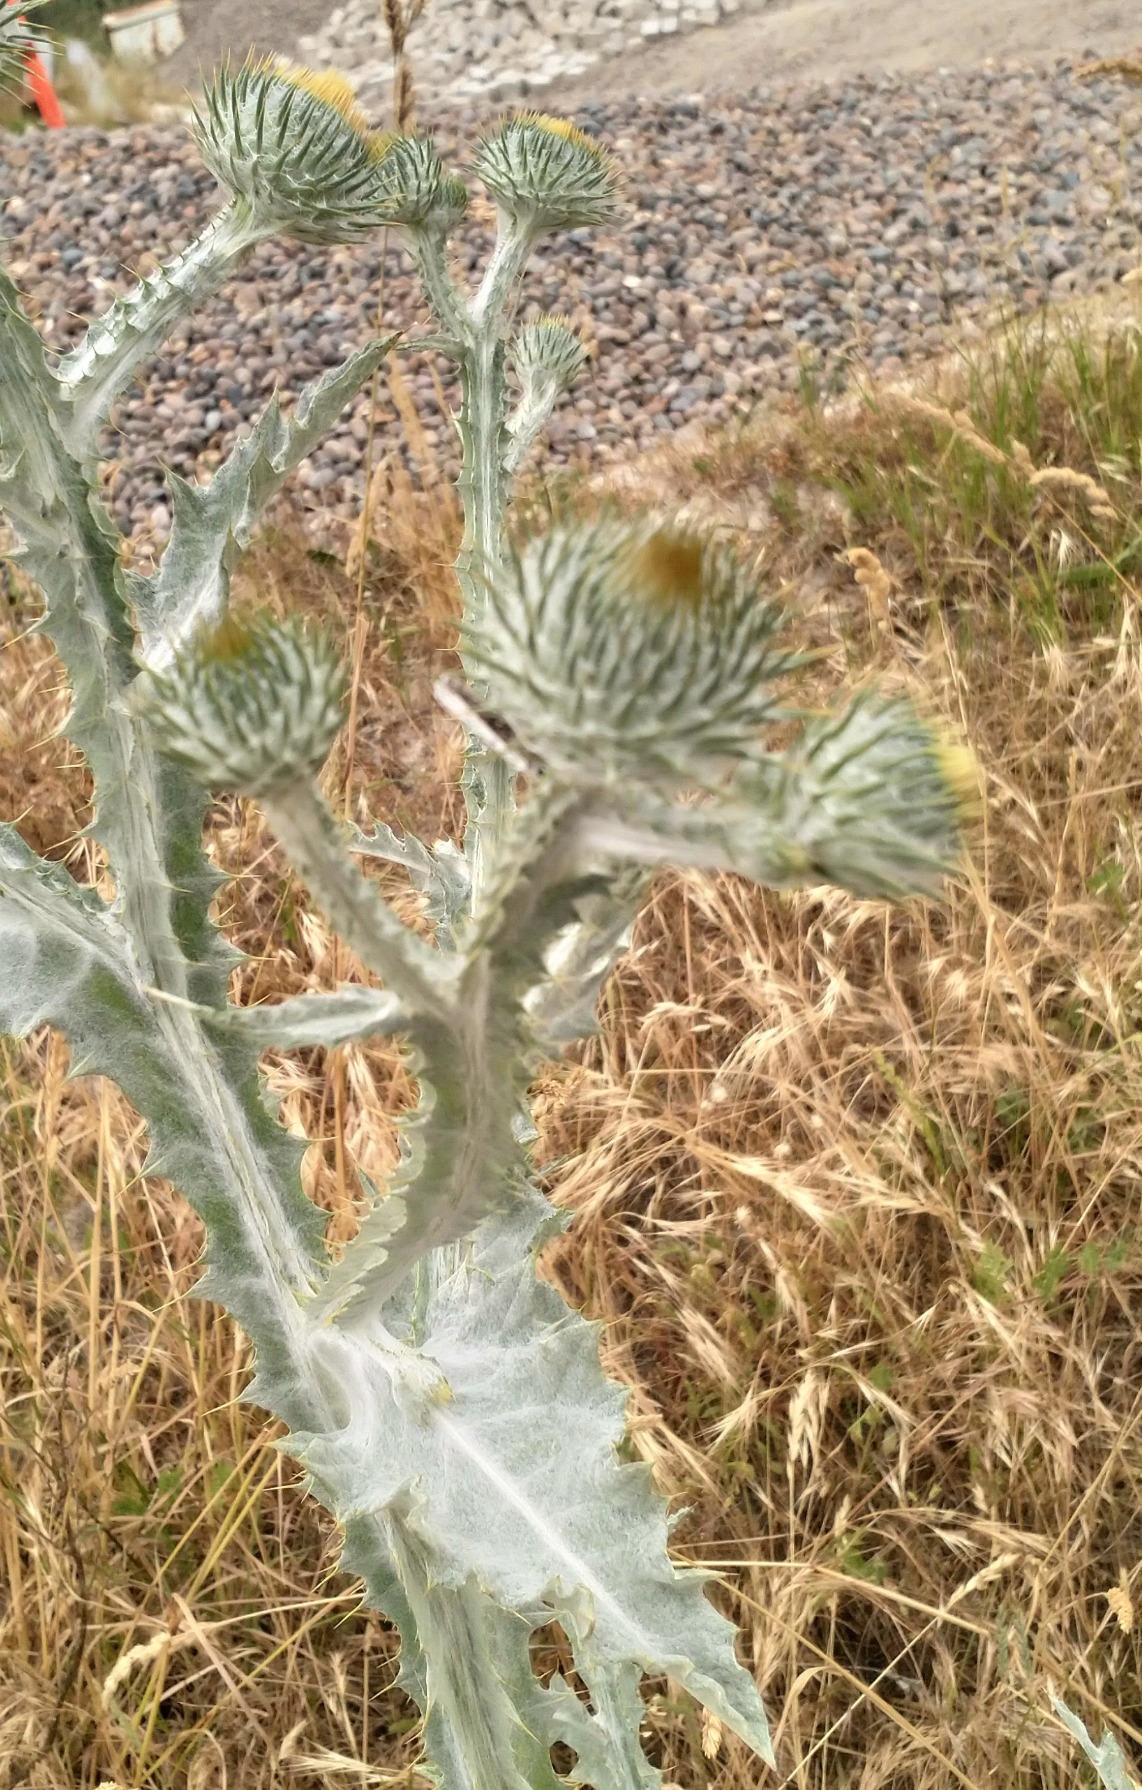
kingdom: Plantae
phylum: Tracheophyta
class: Magnoliopsida
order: Asterales
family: Asteraceae
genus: Onopordum
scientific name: Onopordum acanthium
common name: Æselfoder
